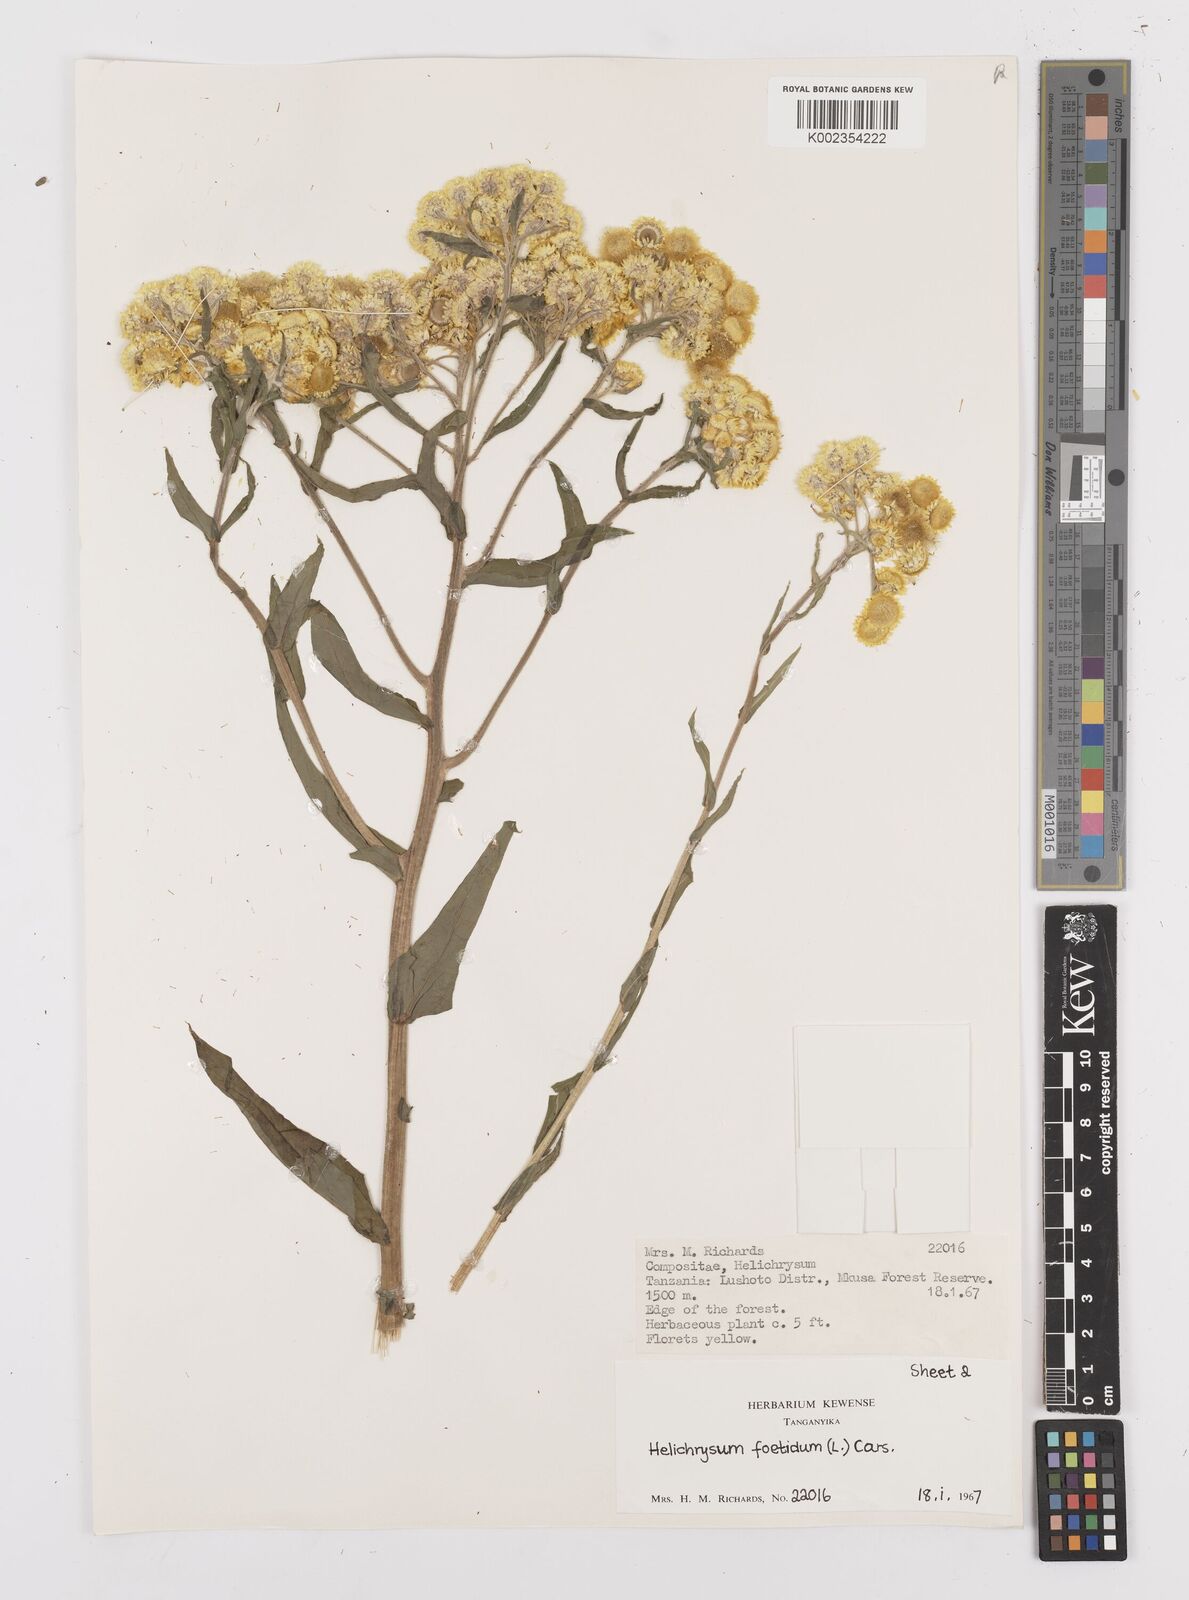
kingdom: Plantae
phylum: Tracheophyta
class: Magnoliopsida
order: Asterales
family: Asteraceae
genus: Helichrysum
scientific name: Helichrysum
